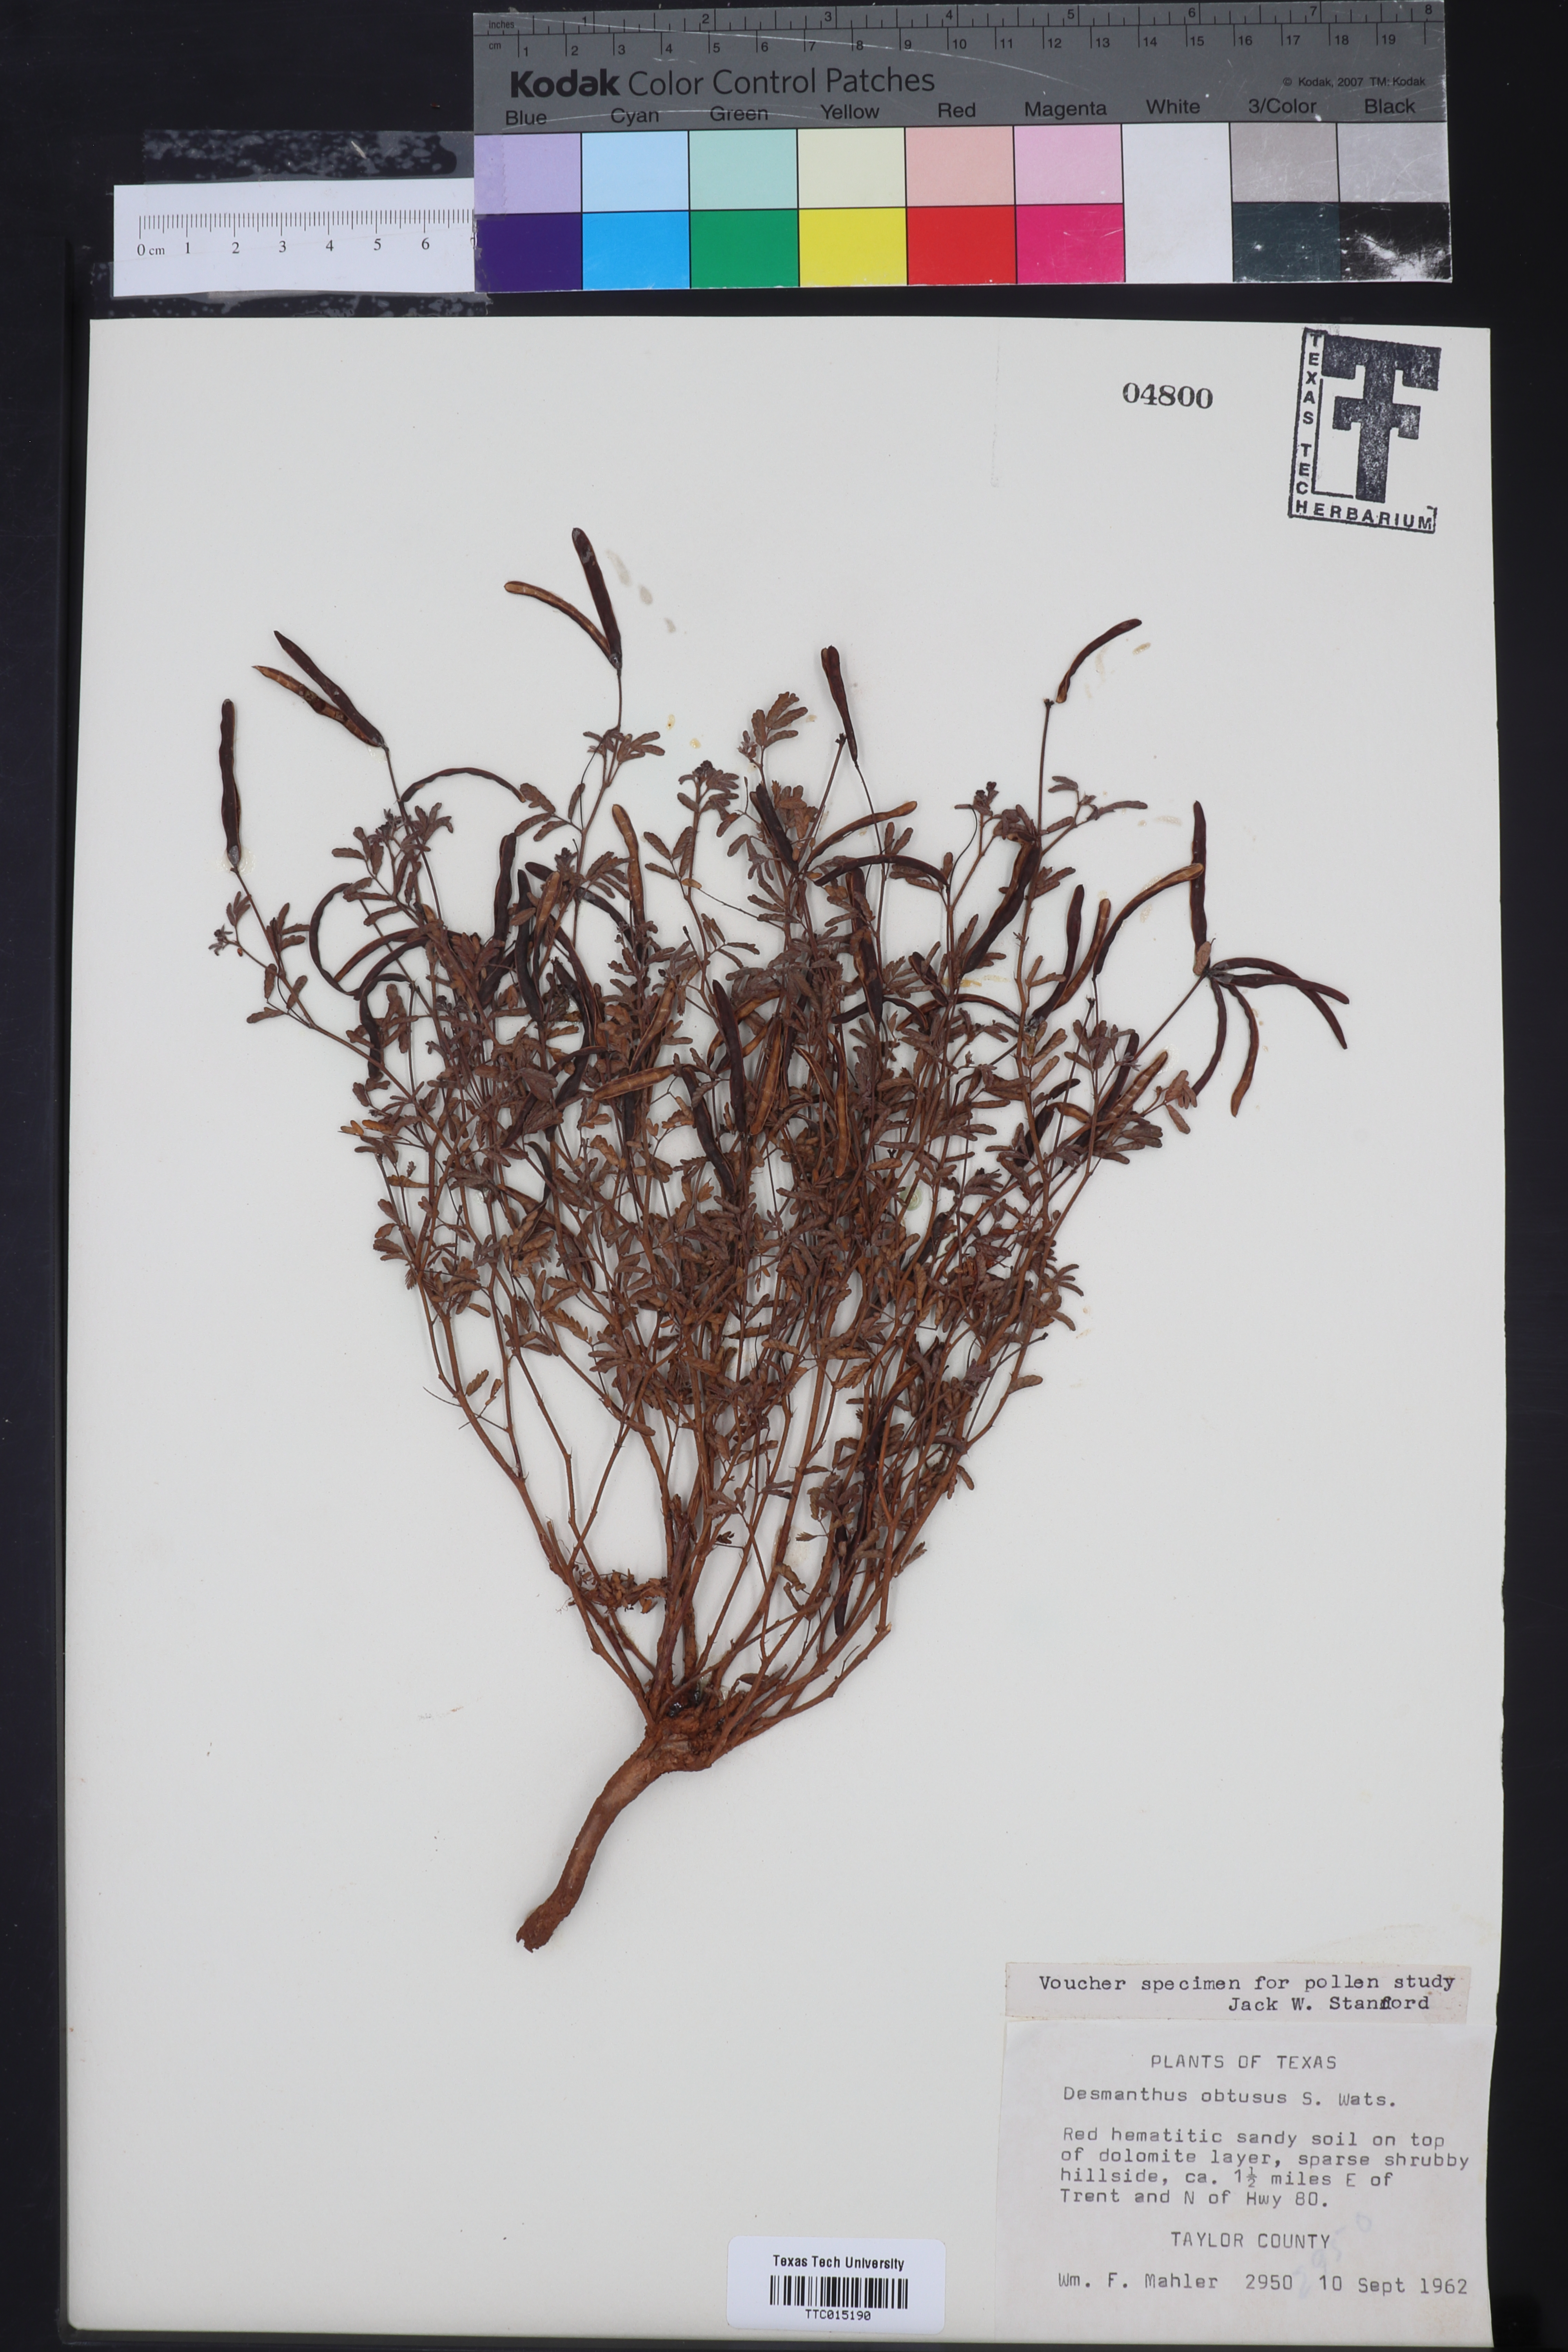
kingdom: Plantae
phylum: Tracheophyta
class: Magnoliopsida
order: Fabales
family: Fabaceae
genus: Desmanthus
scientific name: Desmanthus obtusus
